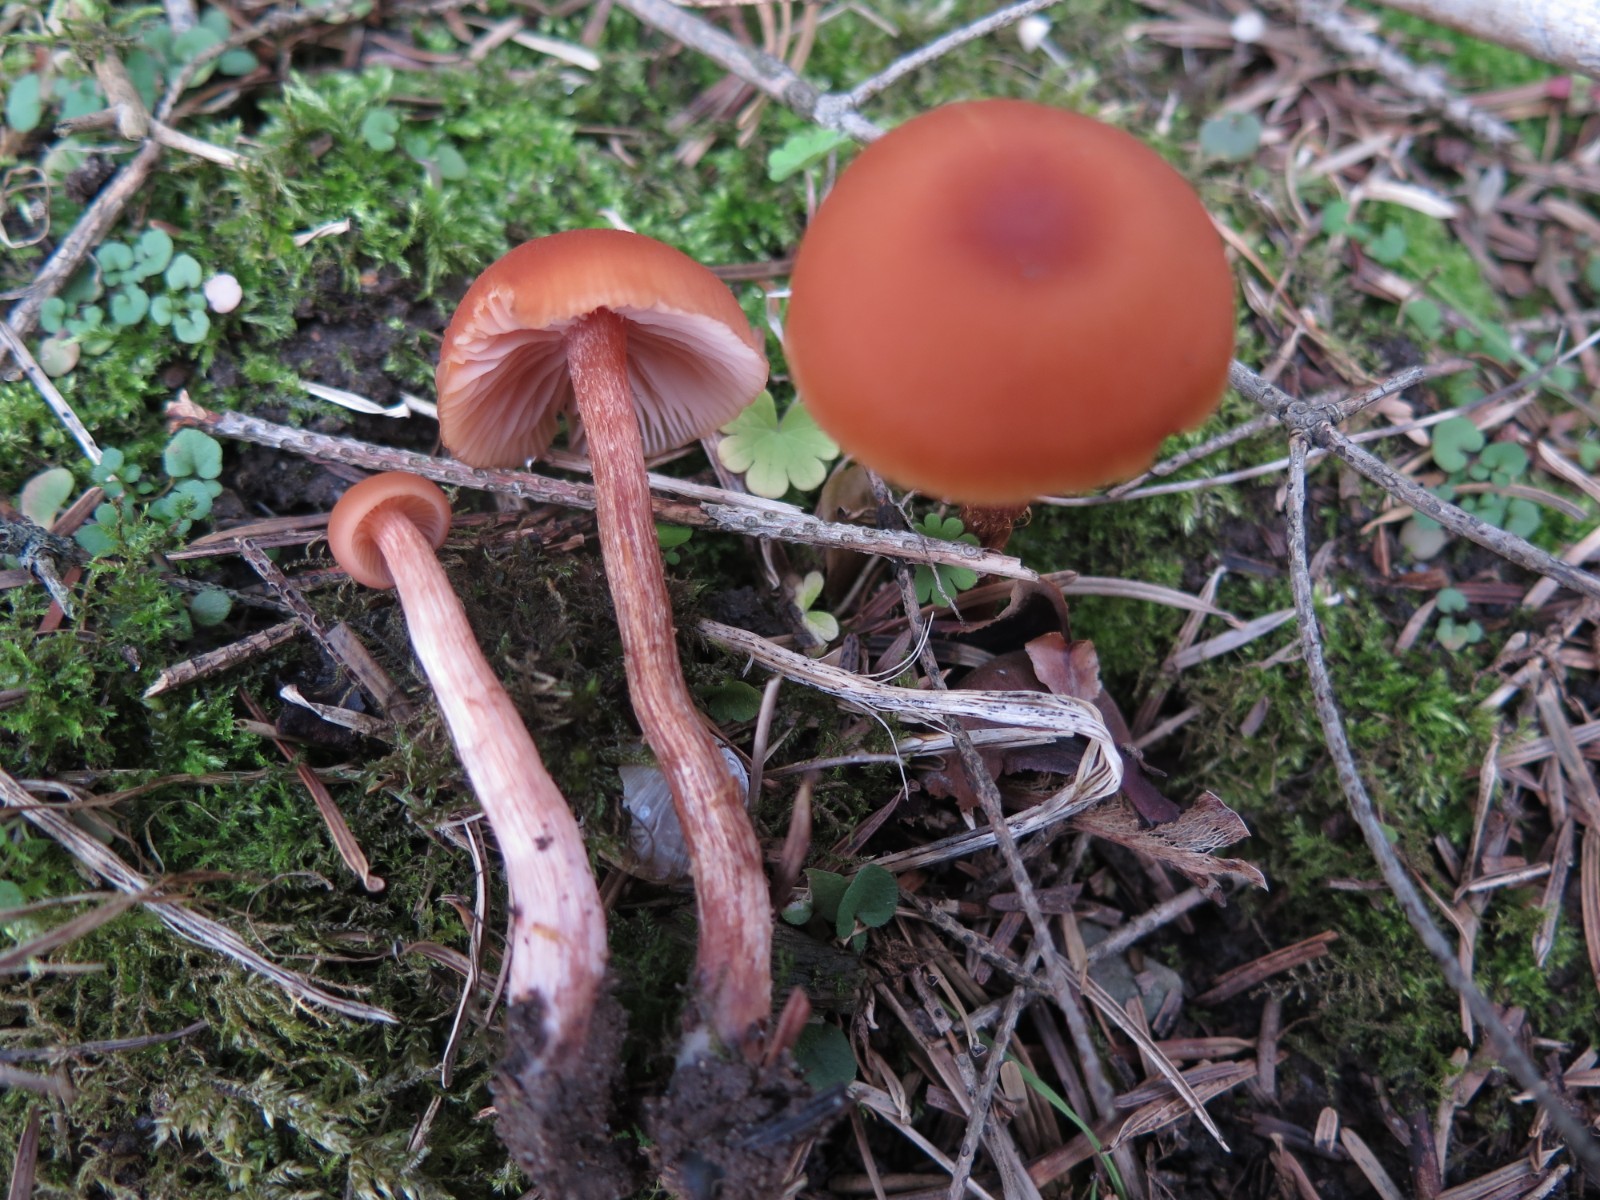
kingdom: Fungi
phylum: Basidiomycota
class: Agaricomycetes
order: Agaricales
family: Hydnangiaceae
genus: Laccaria
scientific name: Laccaria laccata
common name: rød ametysthat
